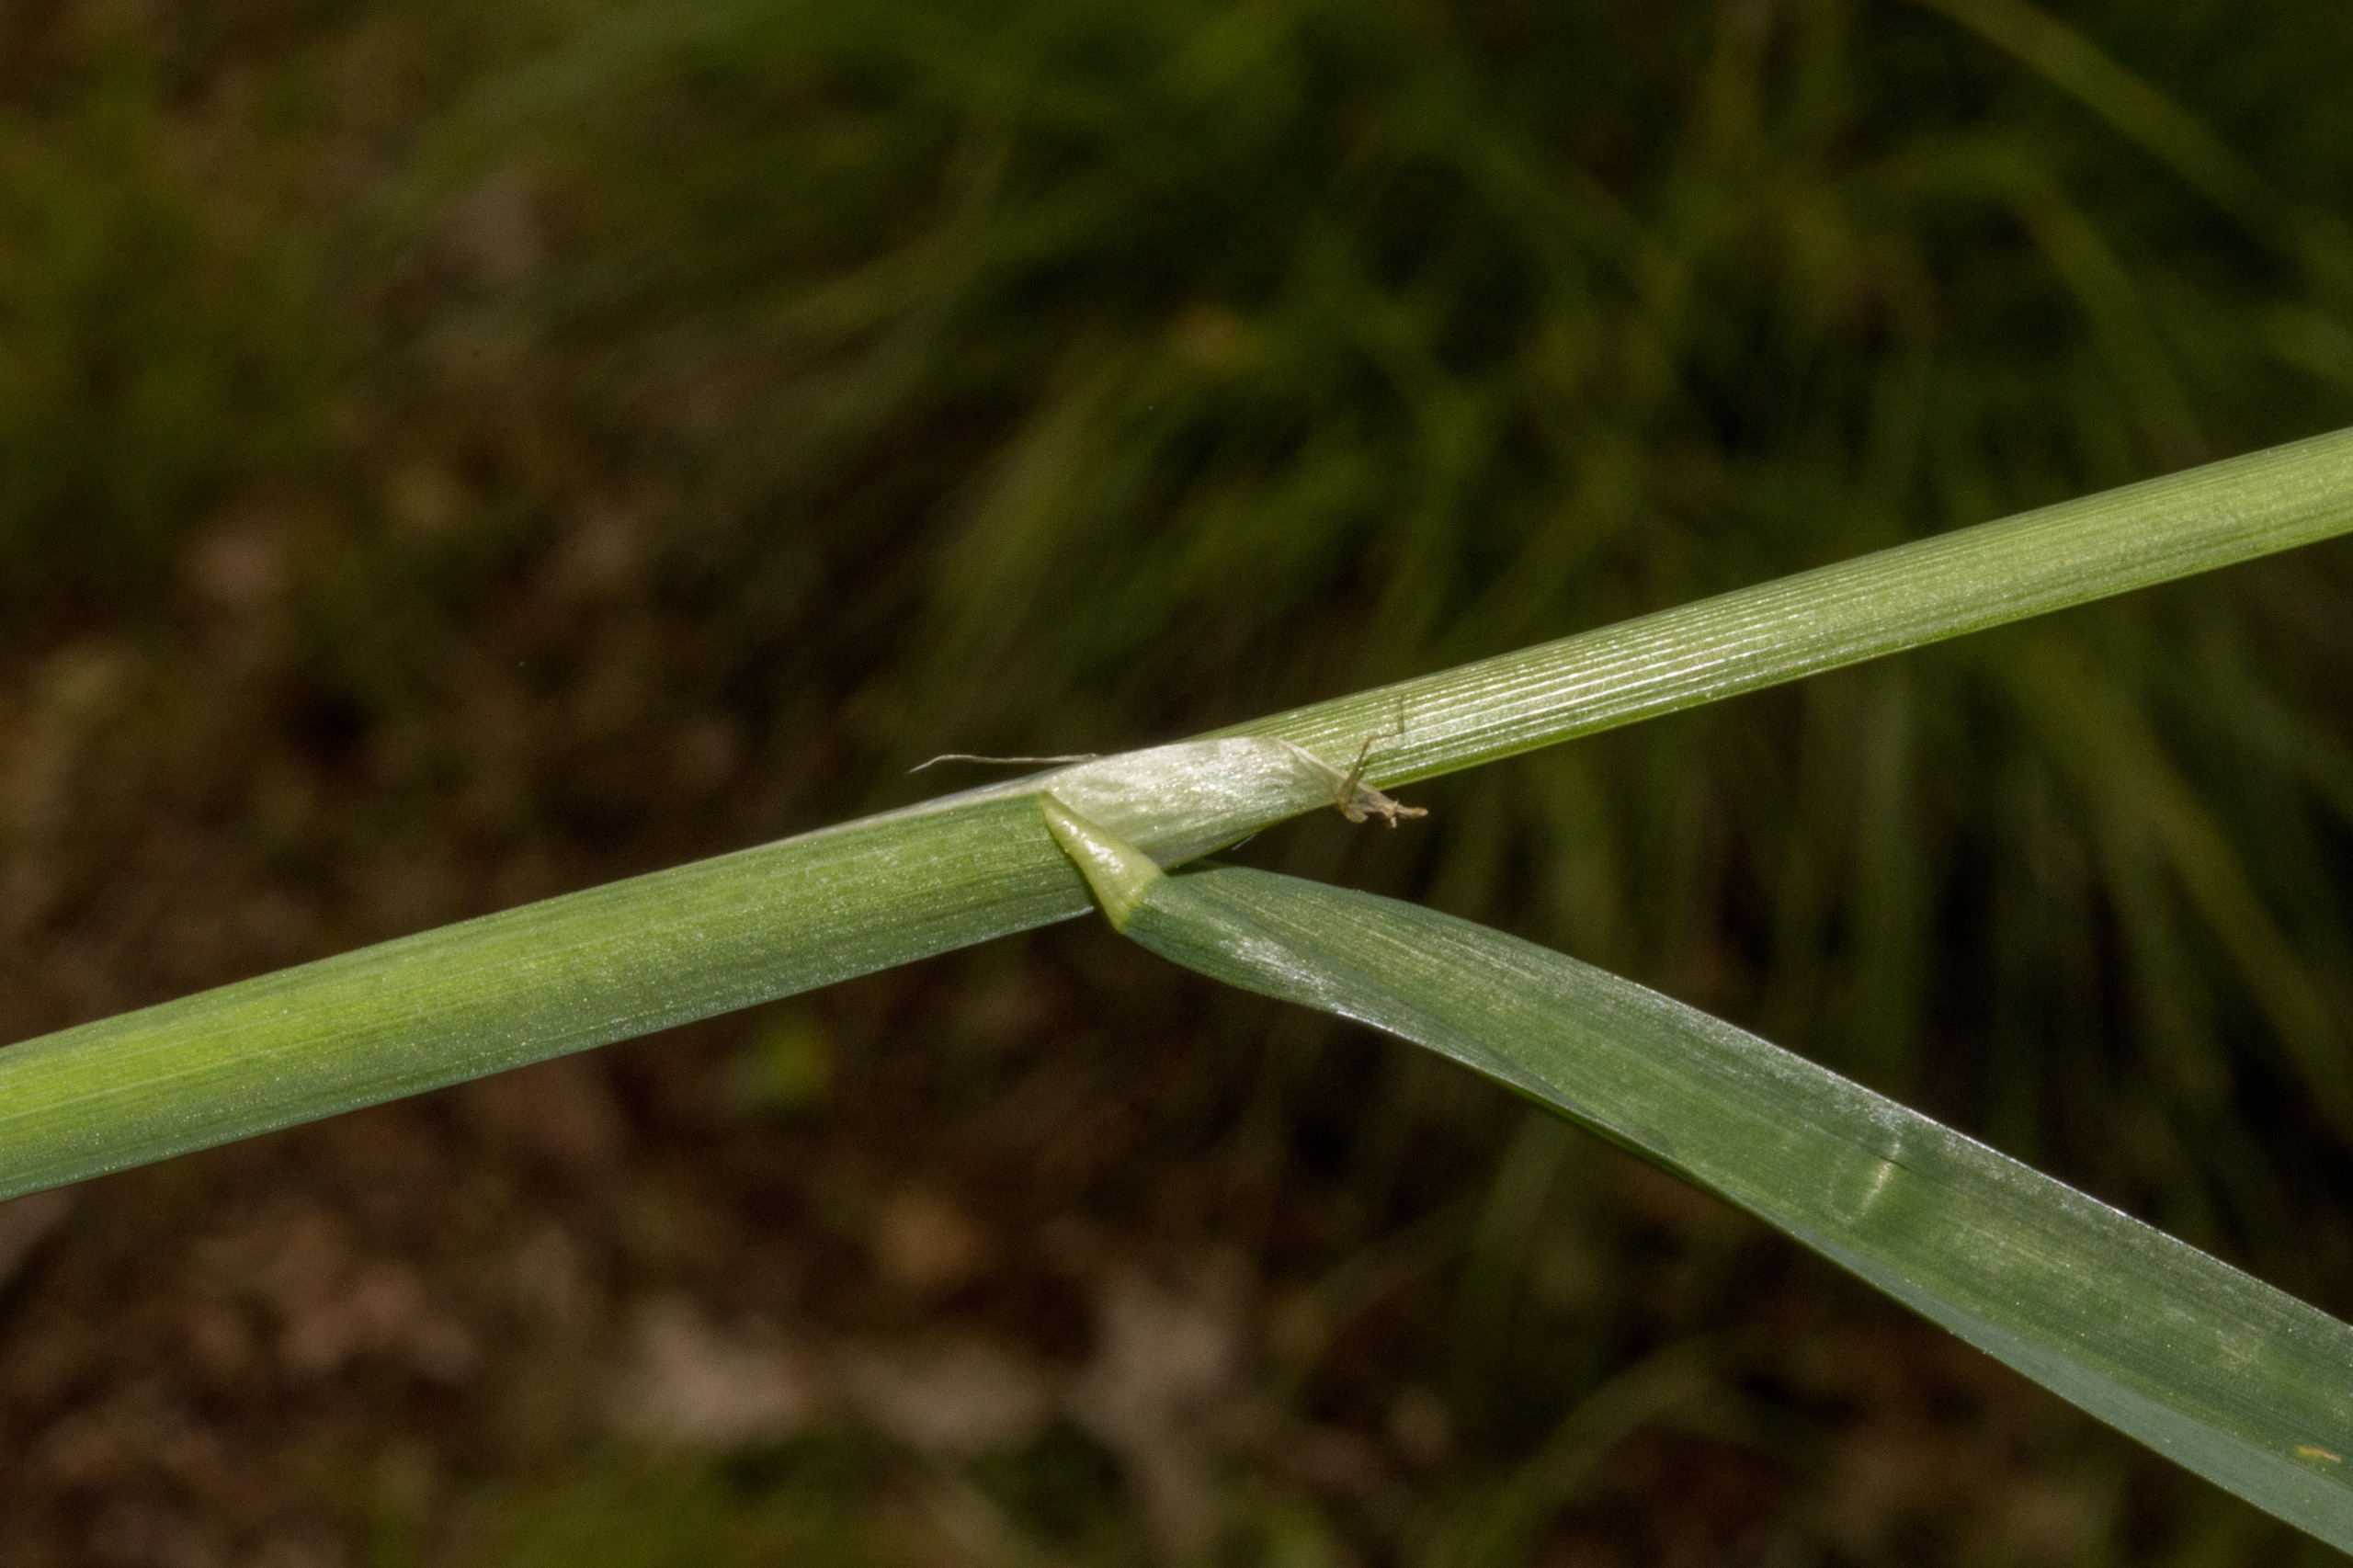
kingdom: Plantae
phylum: Tracheophyta
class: Liliopsida
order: Poales
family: Poaceae
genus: Dactylis
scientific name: Dactylis glomerata
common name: Almindelig hundegræs
